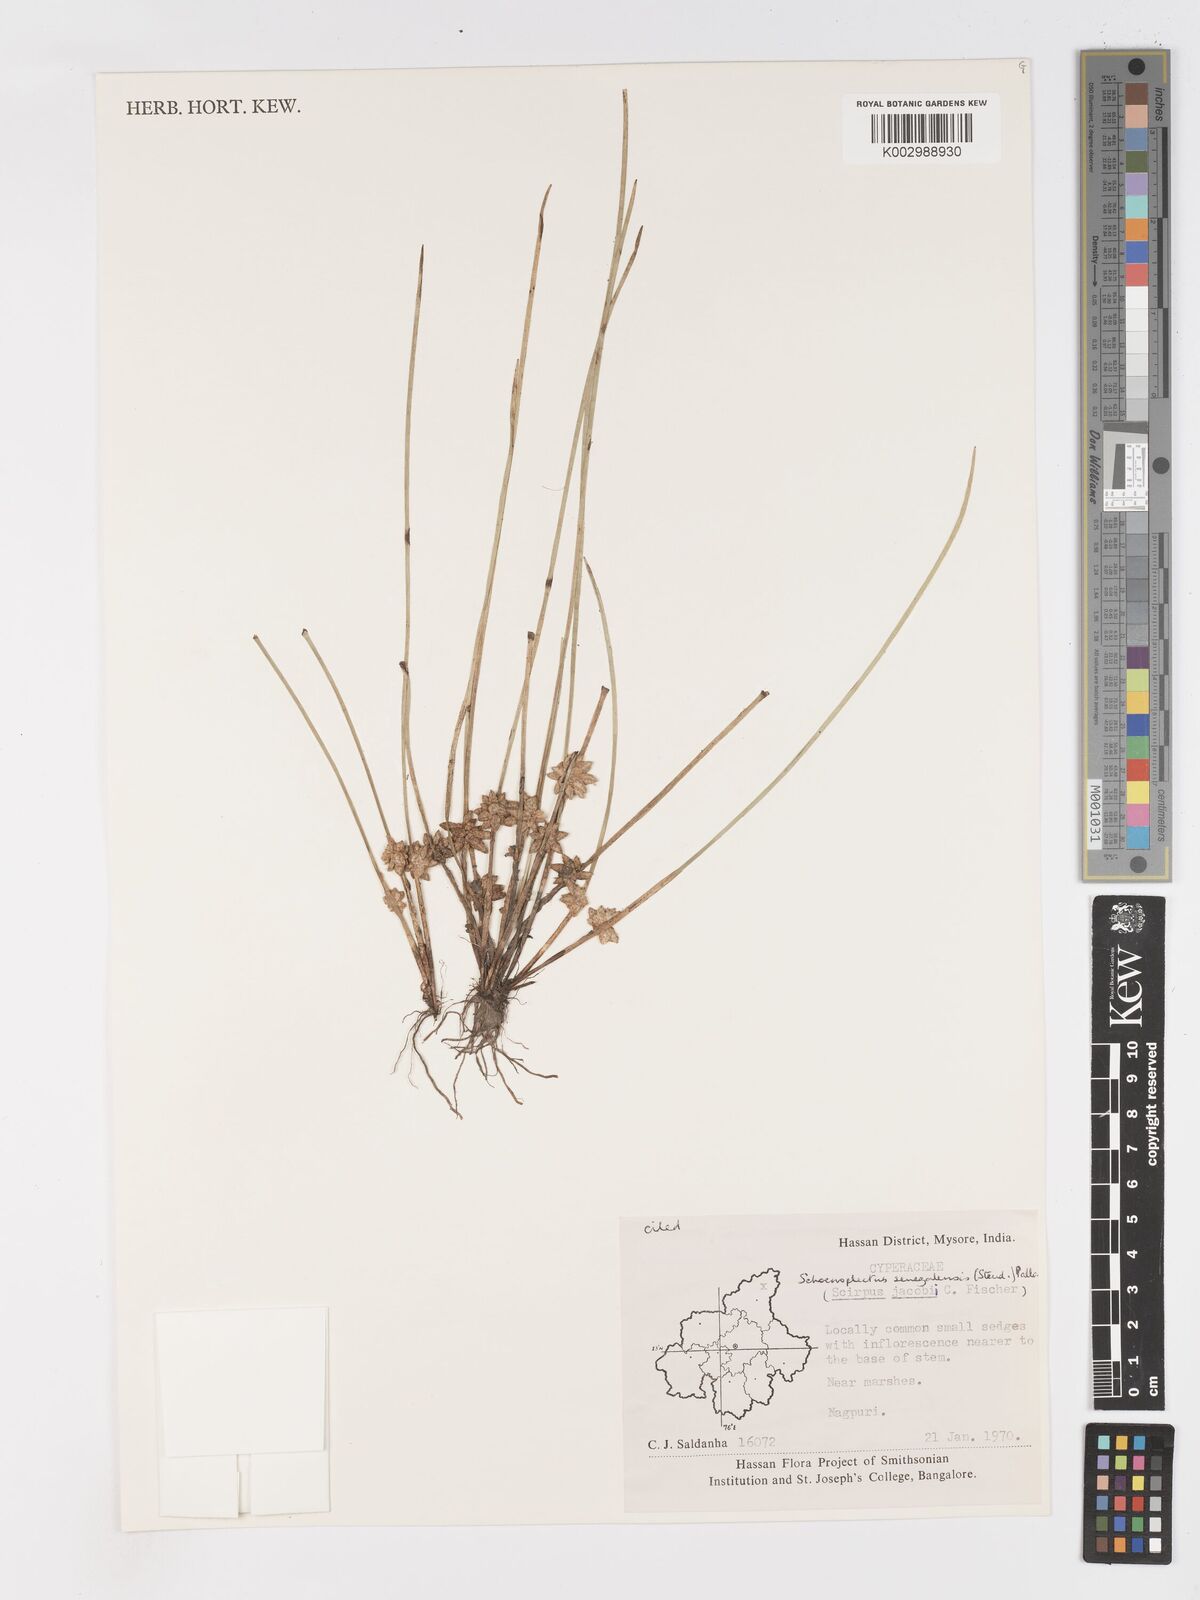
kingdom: Plantae
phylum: Tracheophyta
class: Liliopsida
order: Poales
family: Cyperaceae
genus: Schoenoplectiella
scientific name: Schoenoplectiella senegalensis
